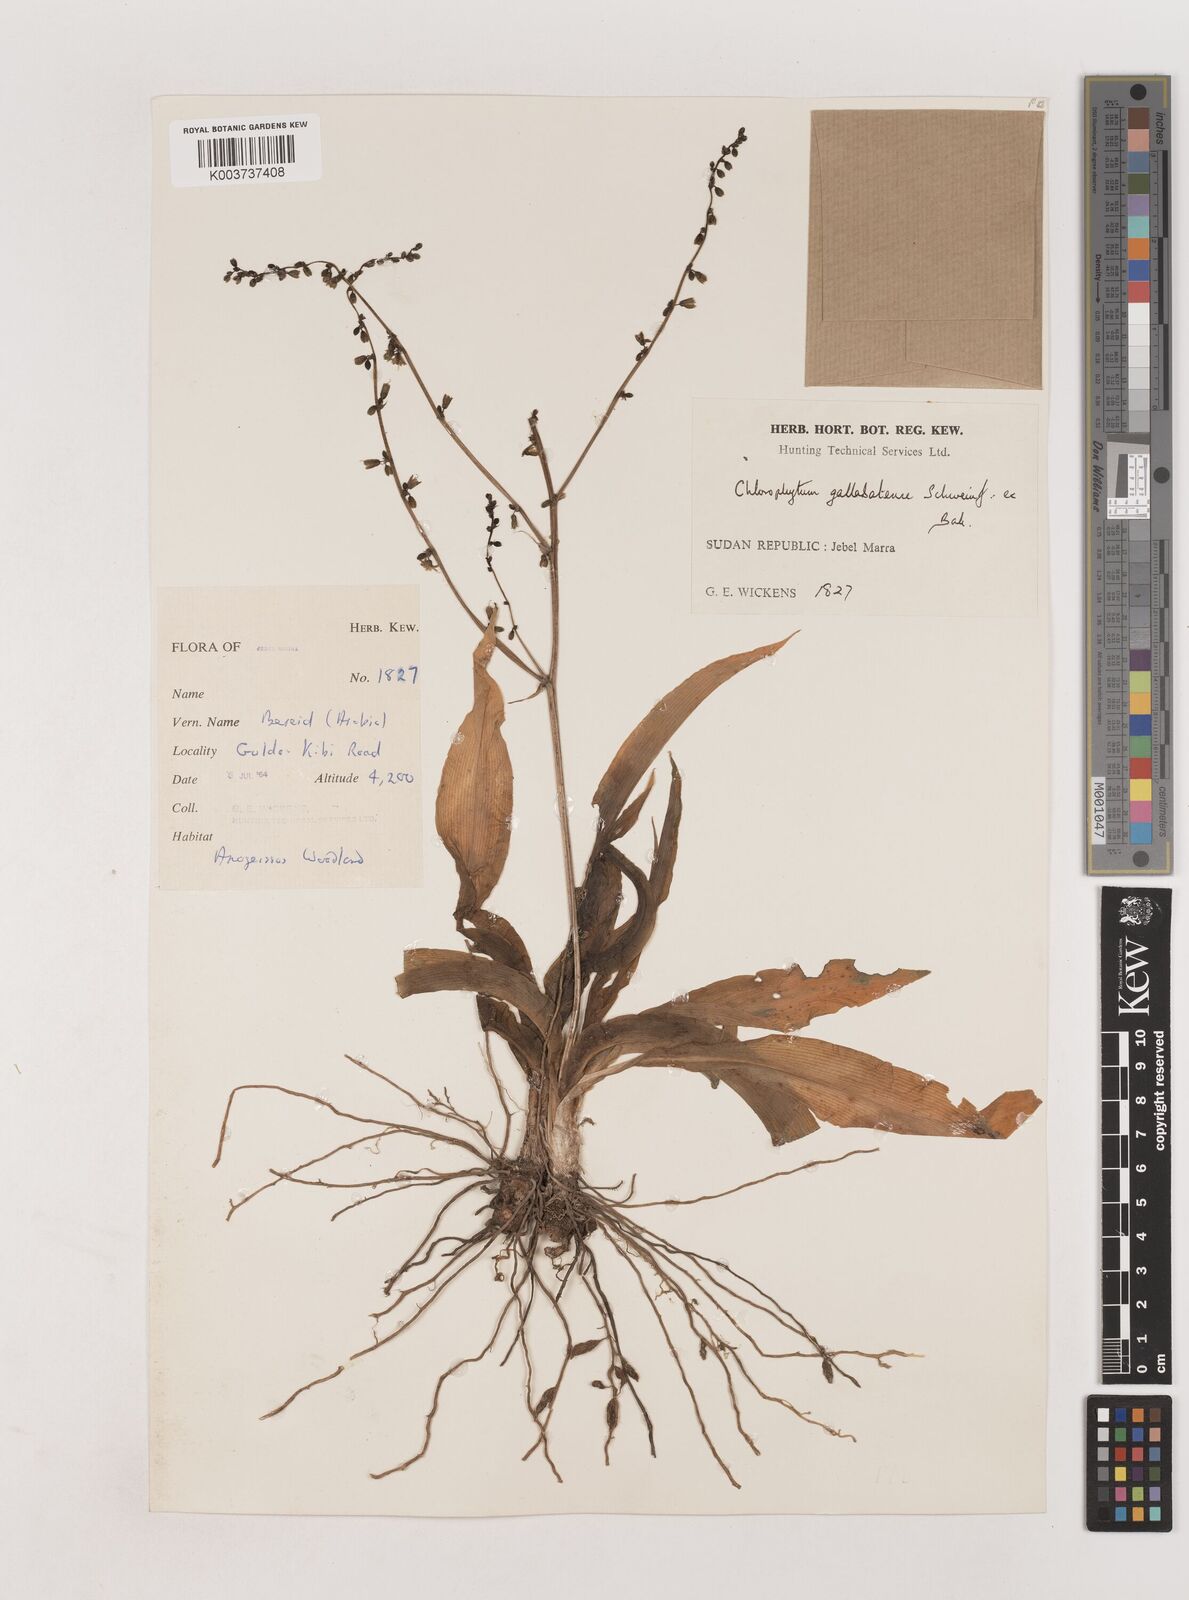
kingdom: Plantae
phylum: Tracheophyta
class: Liliopsida
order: Asparagales
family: Asparagaceae
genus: Chlorophytum
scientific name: Chlorophytum gallabatense
